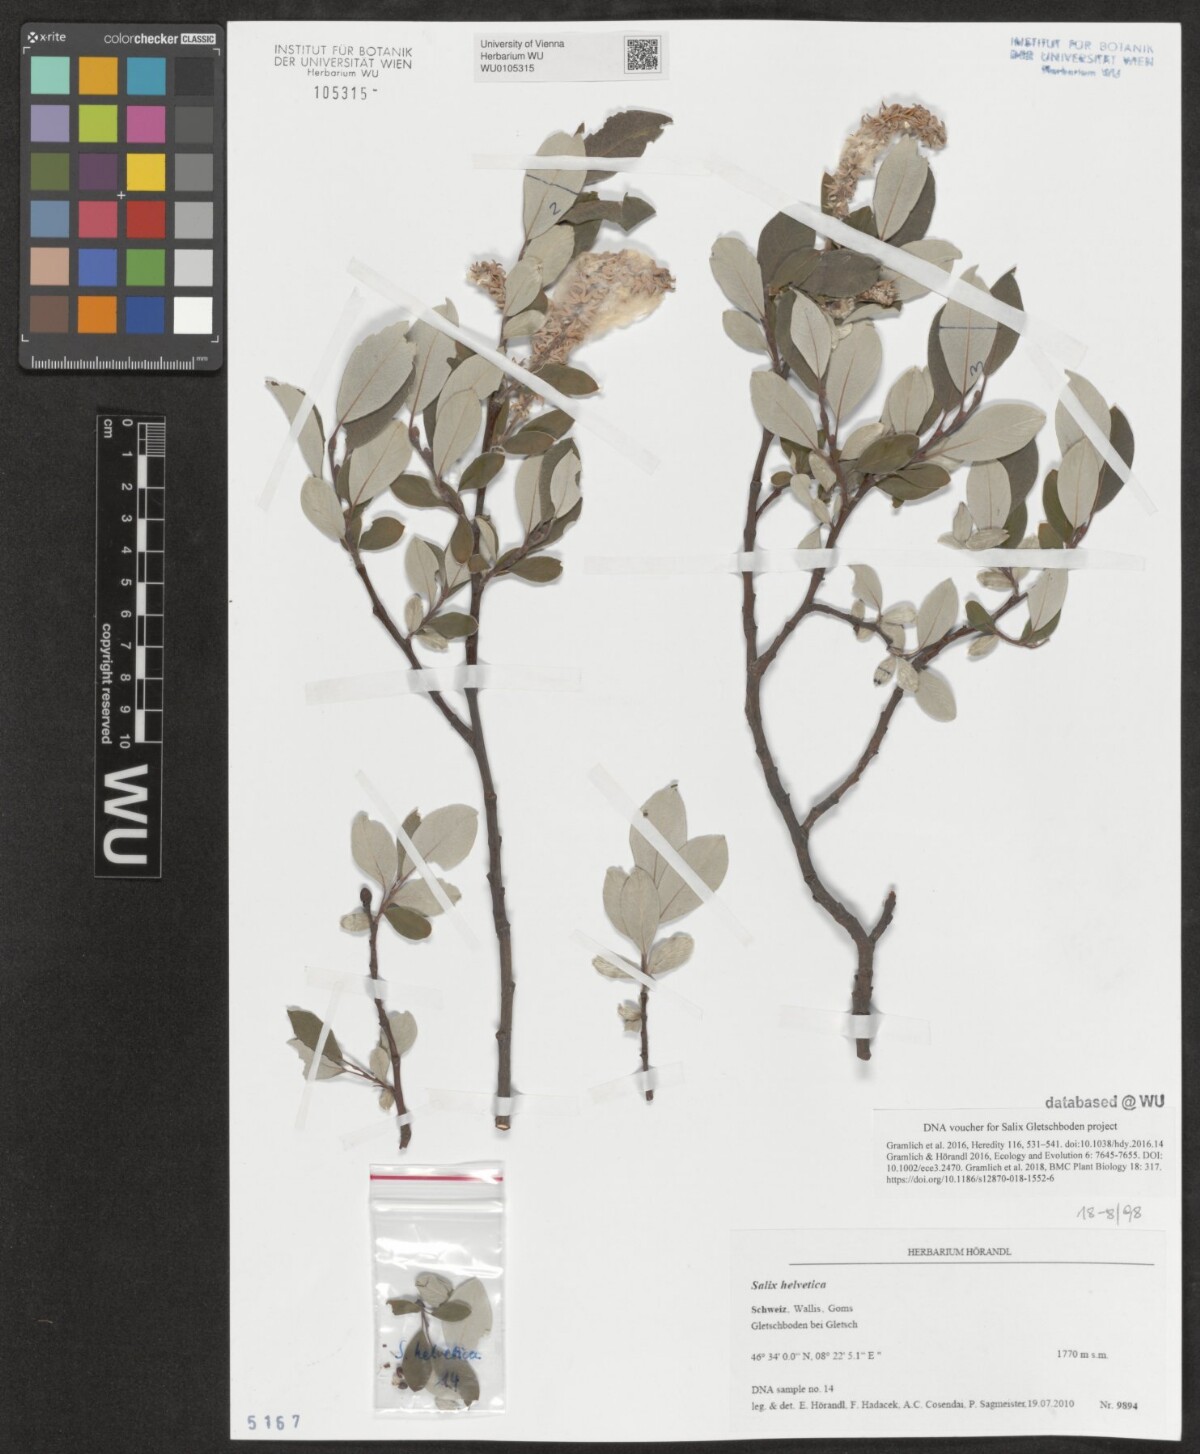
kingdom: Plantae
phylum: Tracheophyta
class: Magnoliopsida
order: Malpighiales
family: Salicaceae
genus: Salix
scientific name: Salix helvetica
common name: Swiss willow
